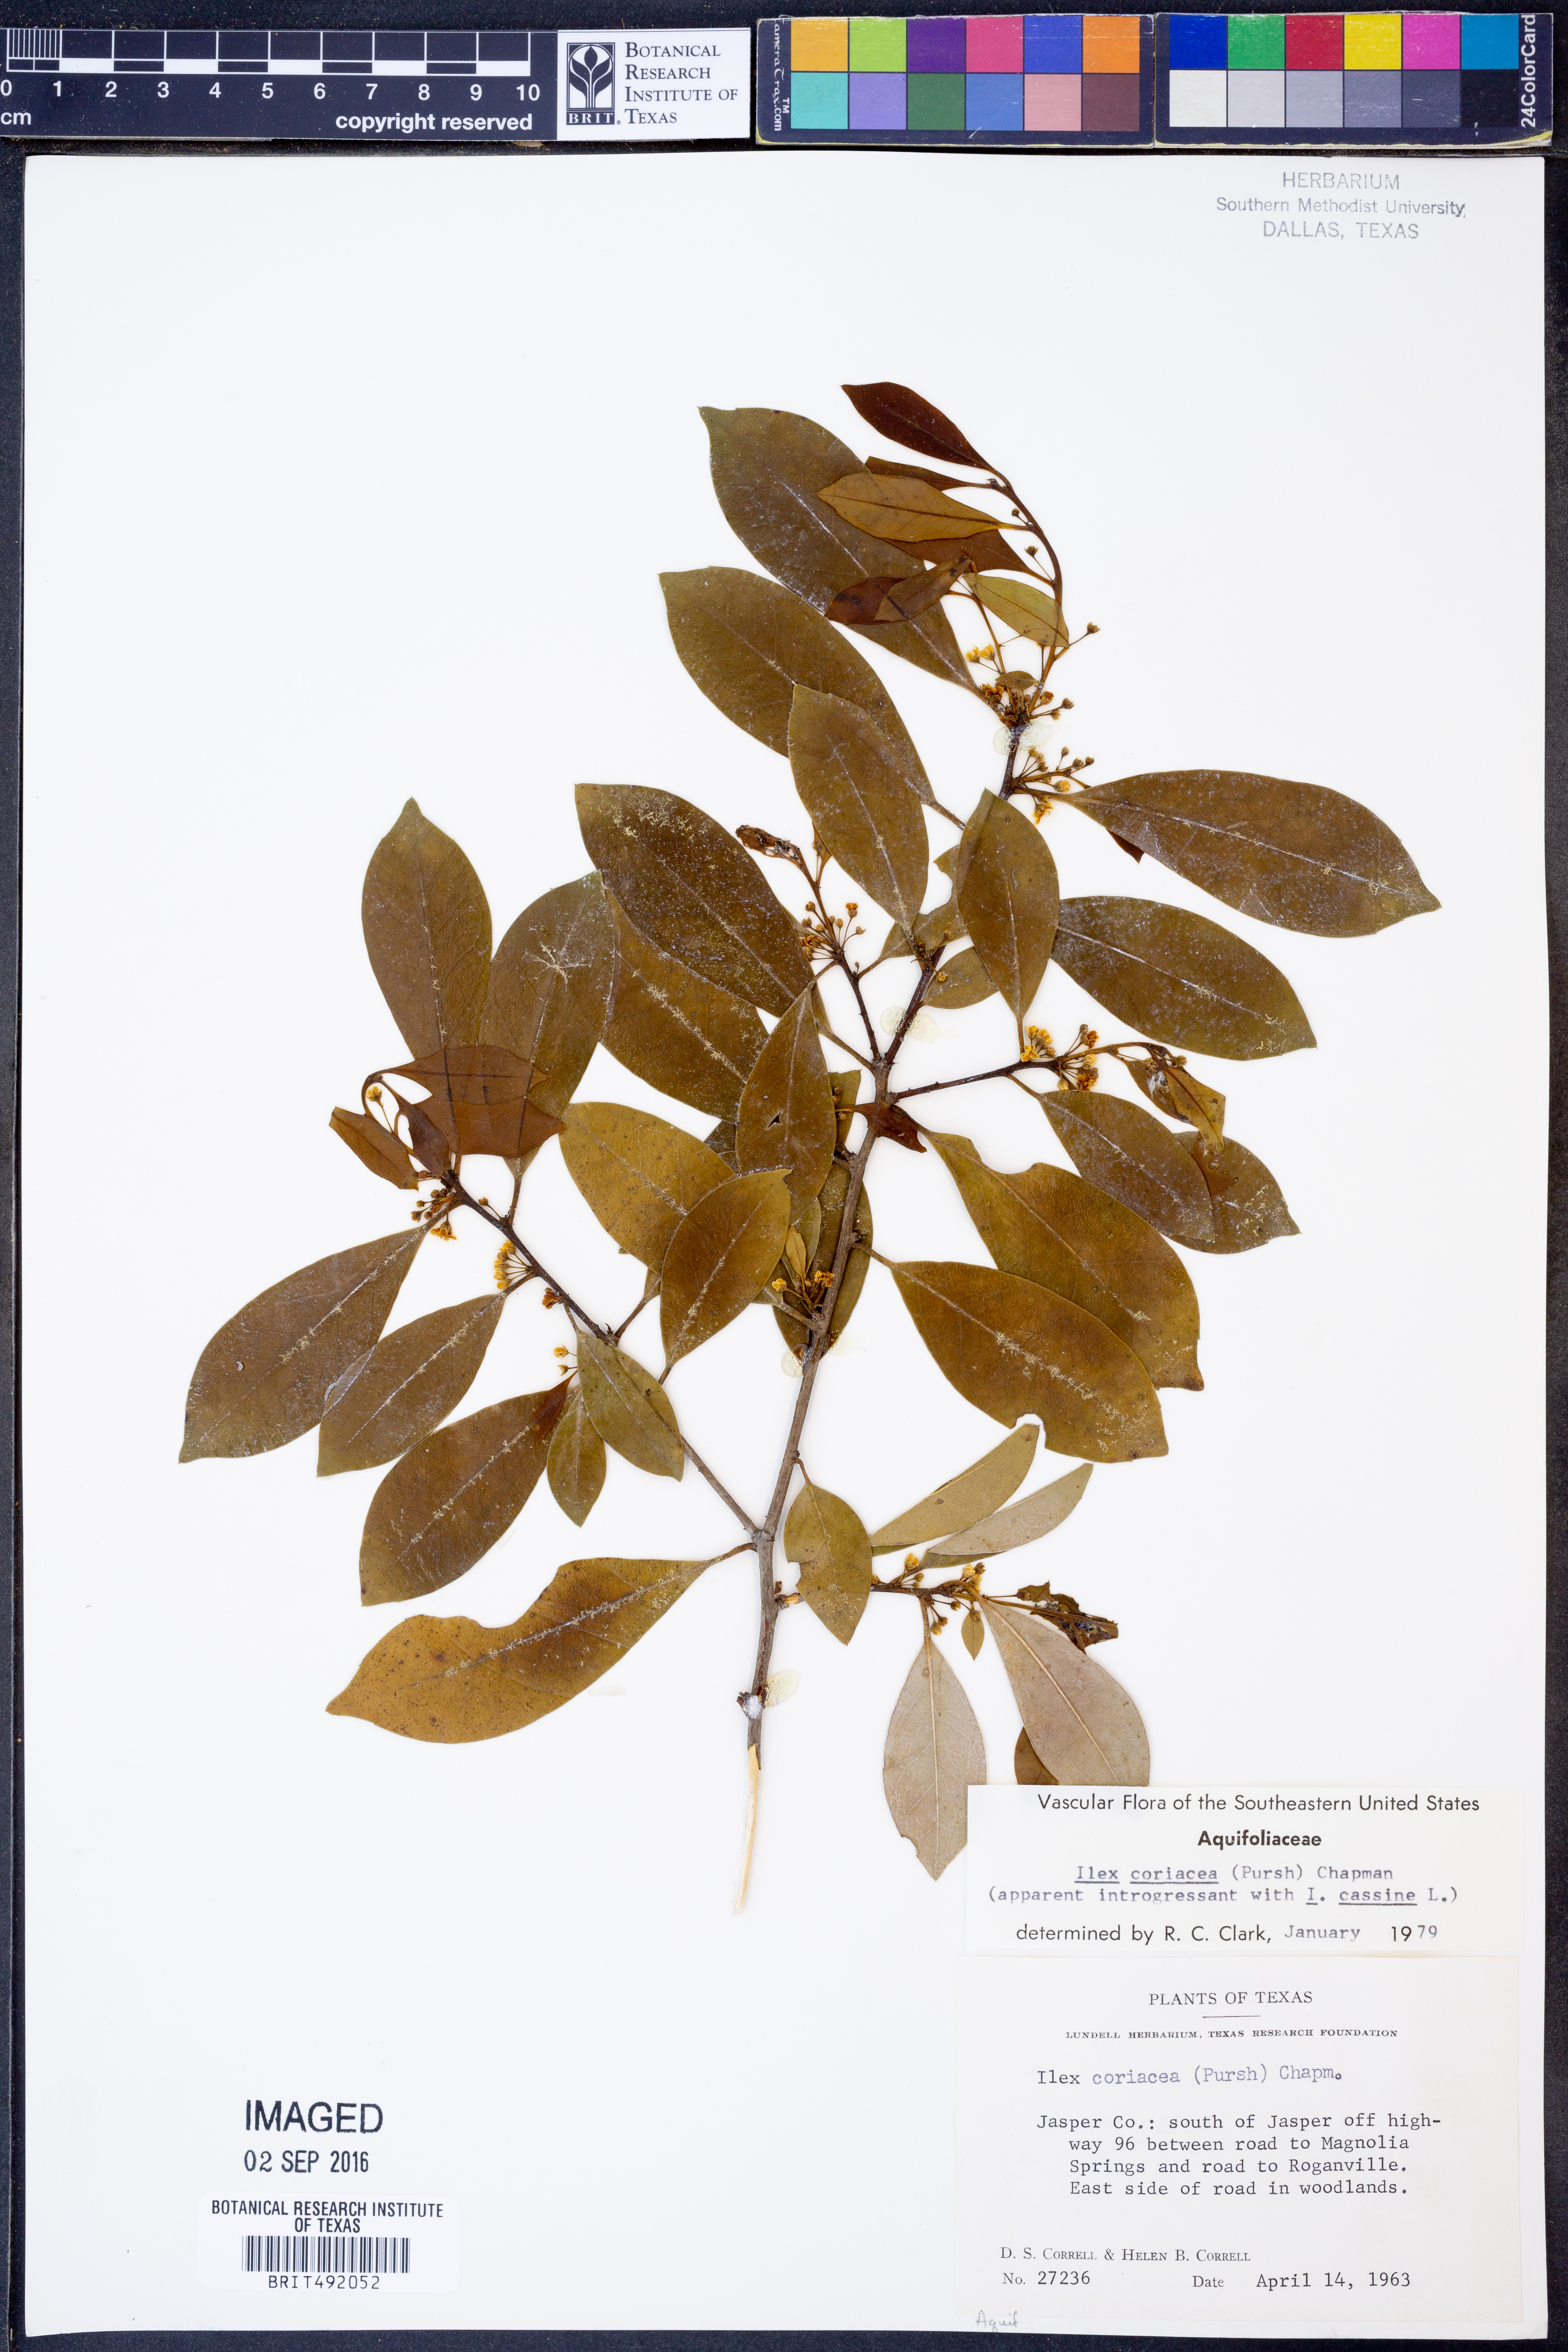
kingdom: Plantae
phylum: Tracheophyta
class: Magnoliopsida
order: Aquifoliales
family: Aquifoliaceae
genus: Ilex
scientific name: Ilex coriacea
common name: Sweet gallberry
